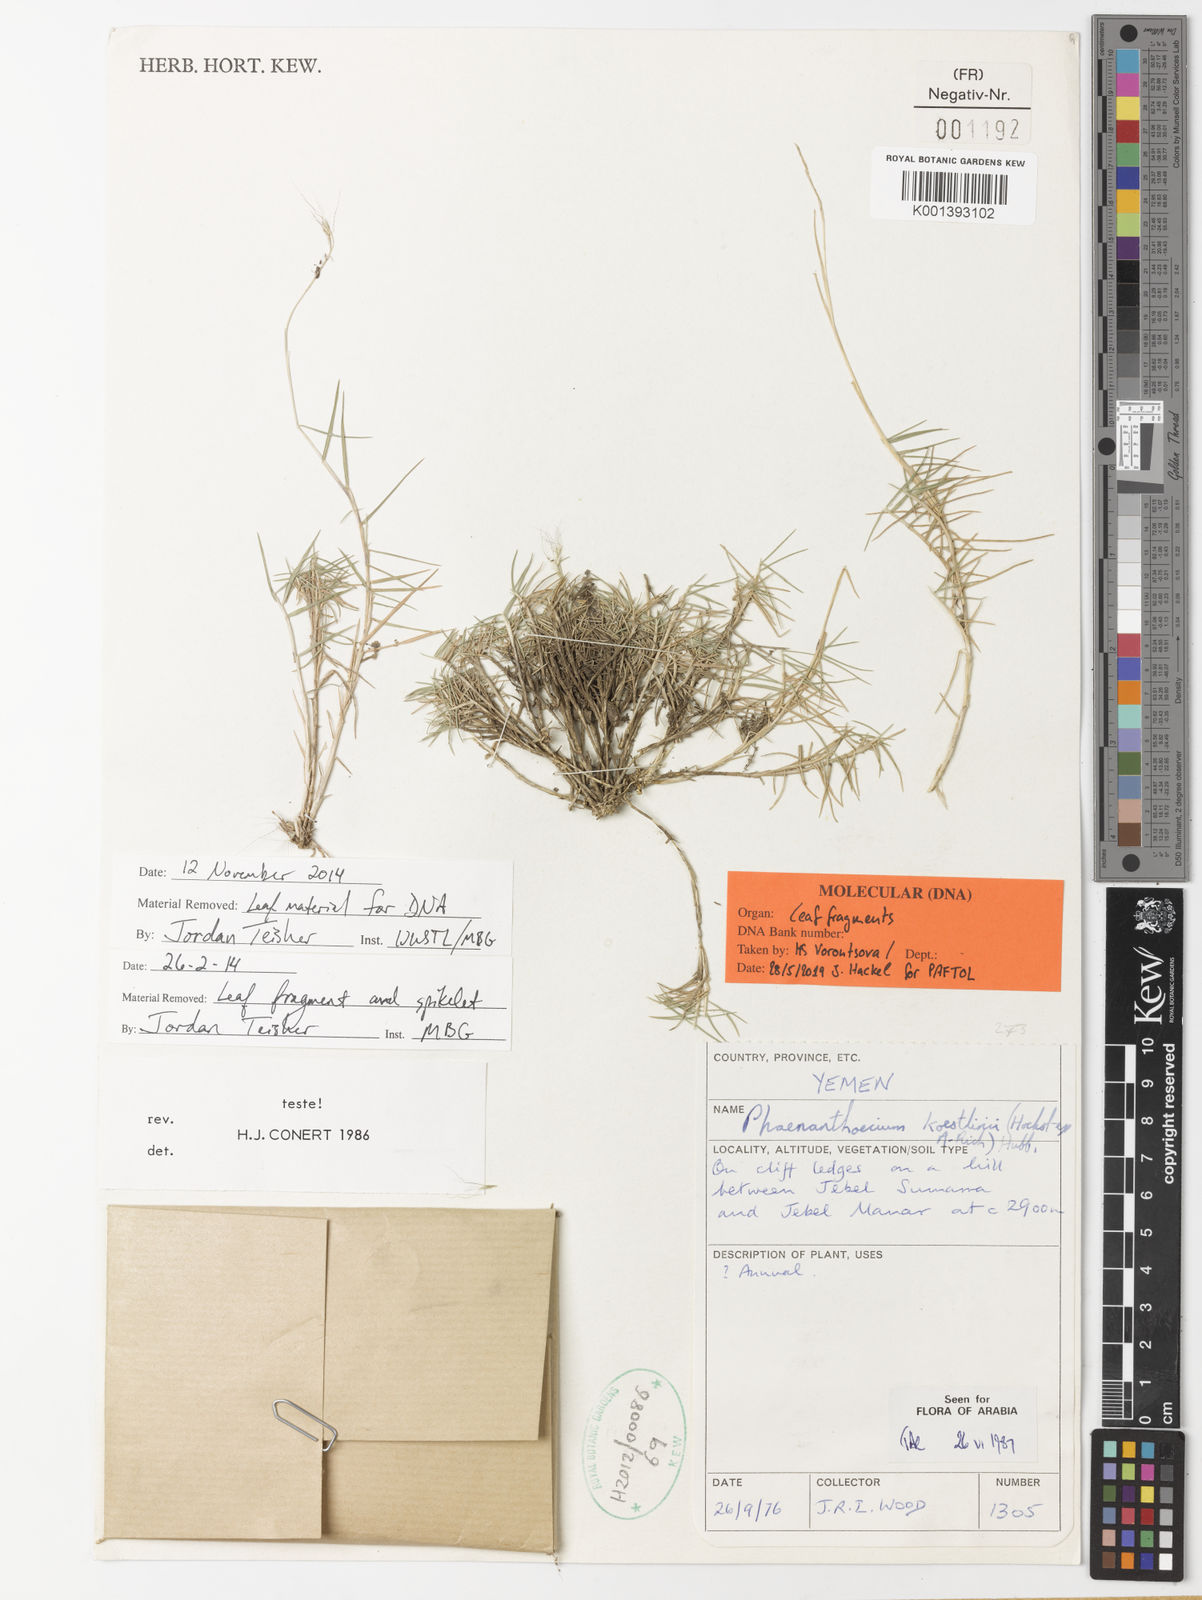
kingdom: Plantae
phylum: Tracheophyta
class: Liliopsida
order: Poales
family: Poaceae
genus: Phaenanthoecium
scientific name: Phaenanthoecium koestlinii
